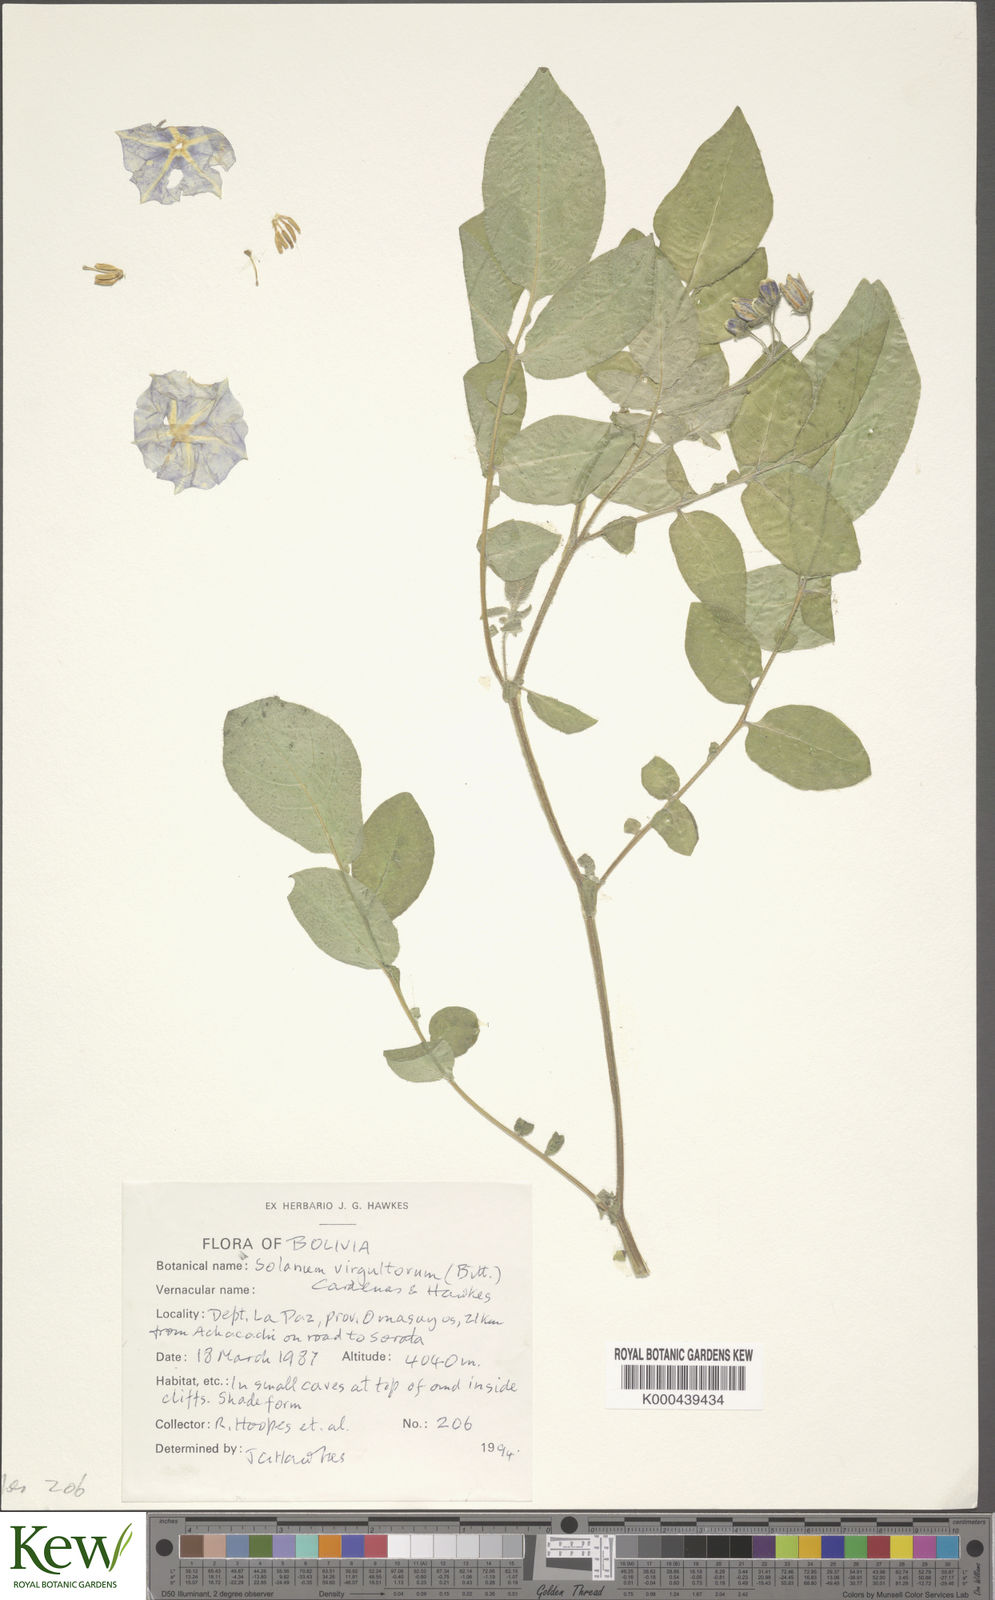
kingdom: Plantae
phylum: Tracheophyta
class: Magnoliopsida
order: Solanales
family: Solanaceae
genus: Solanum
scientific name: Solanum brevicaule
